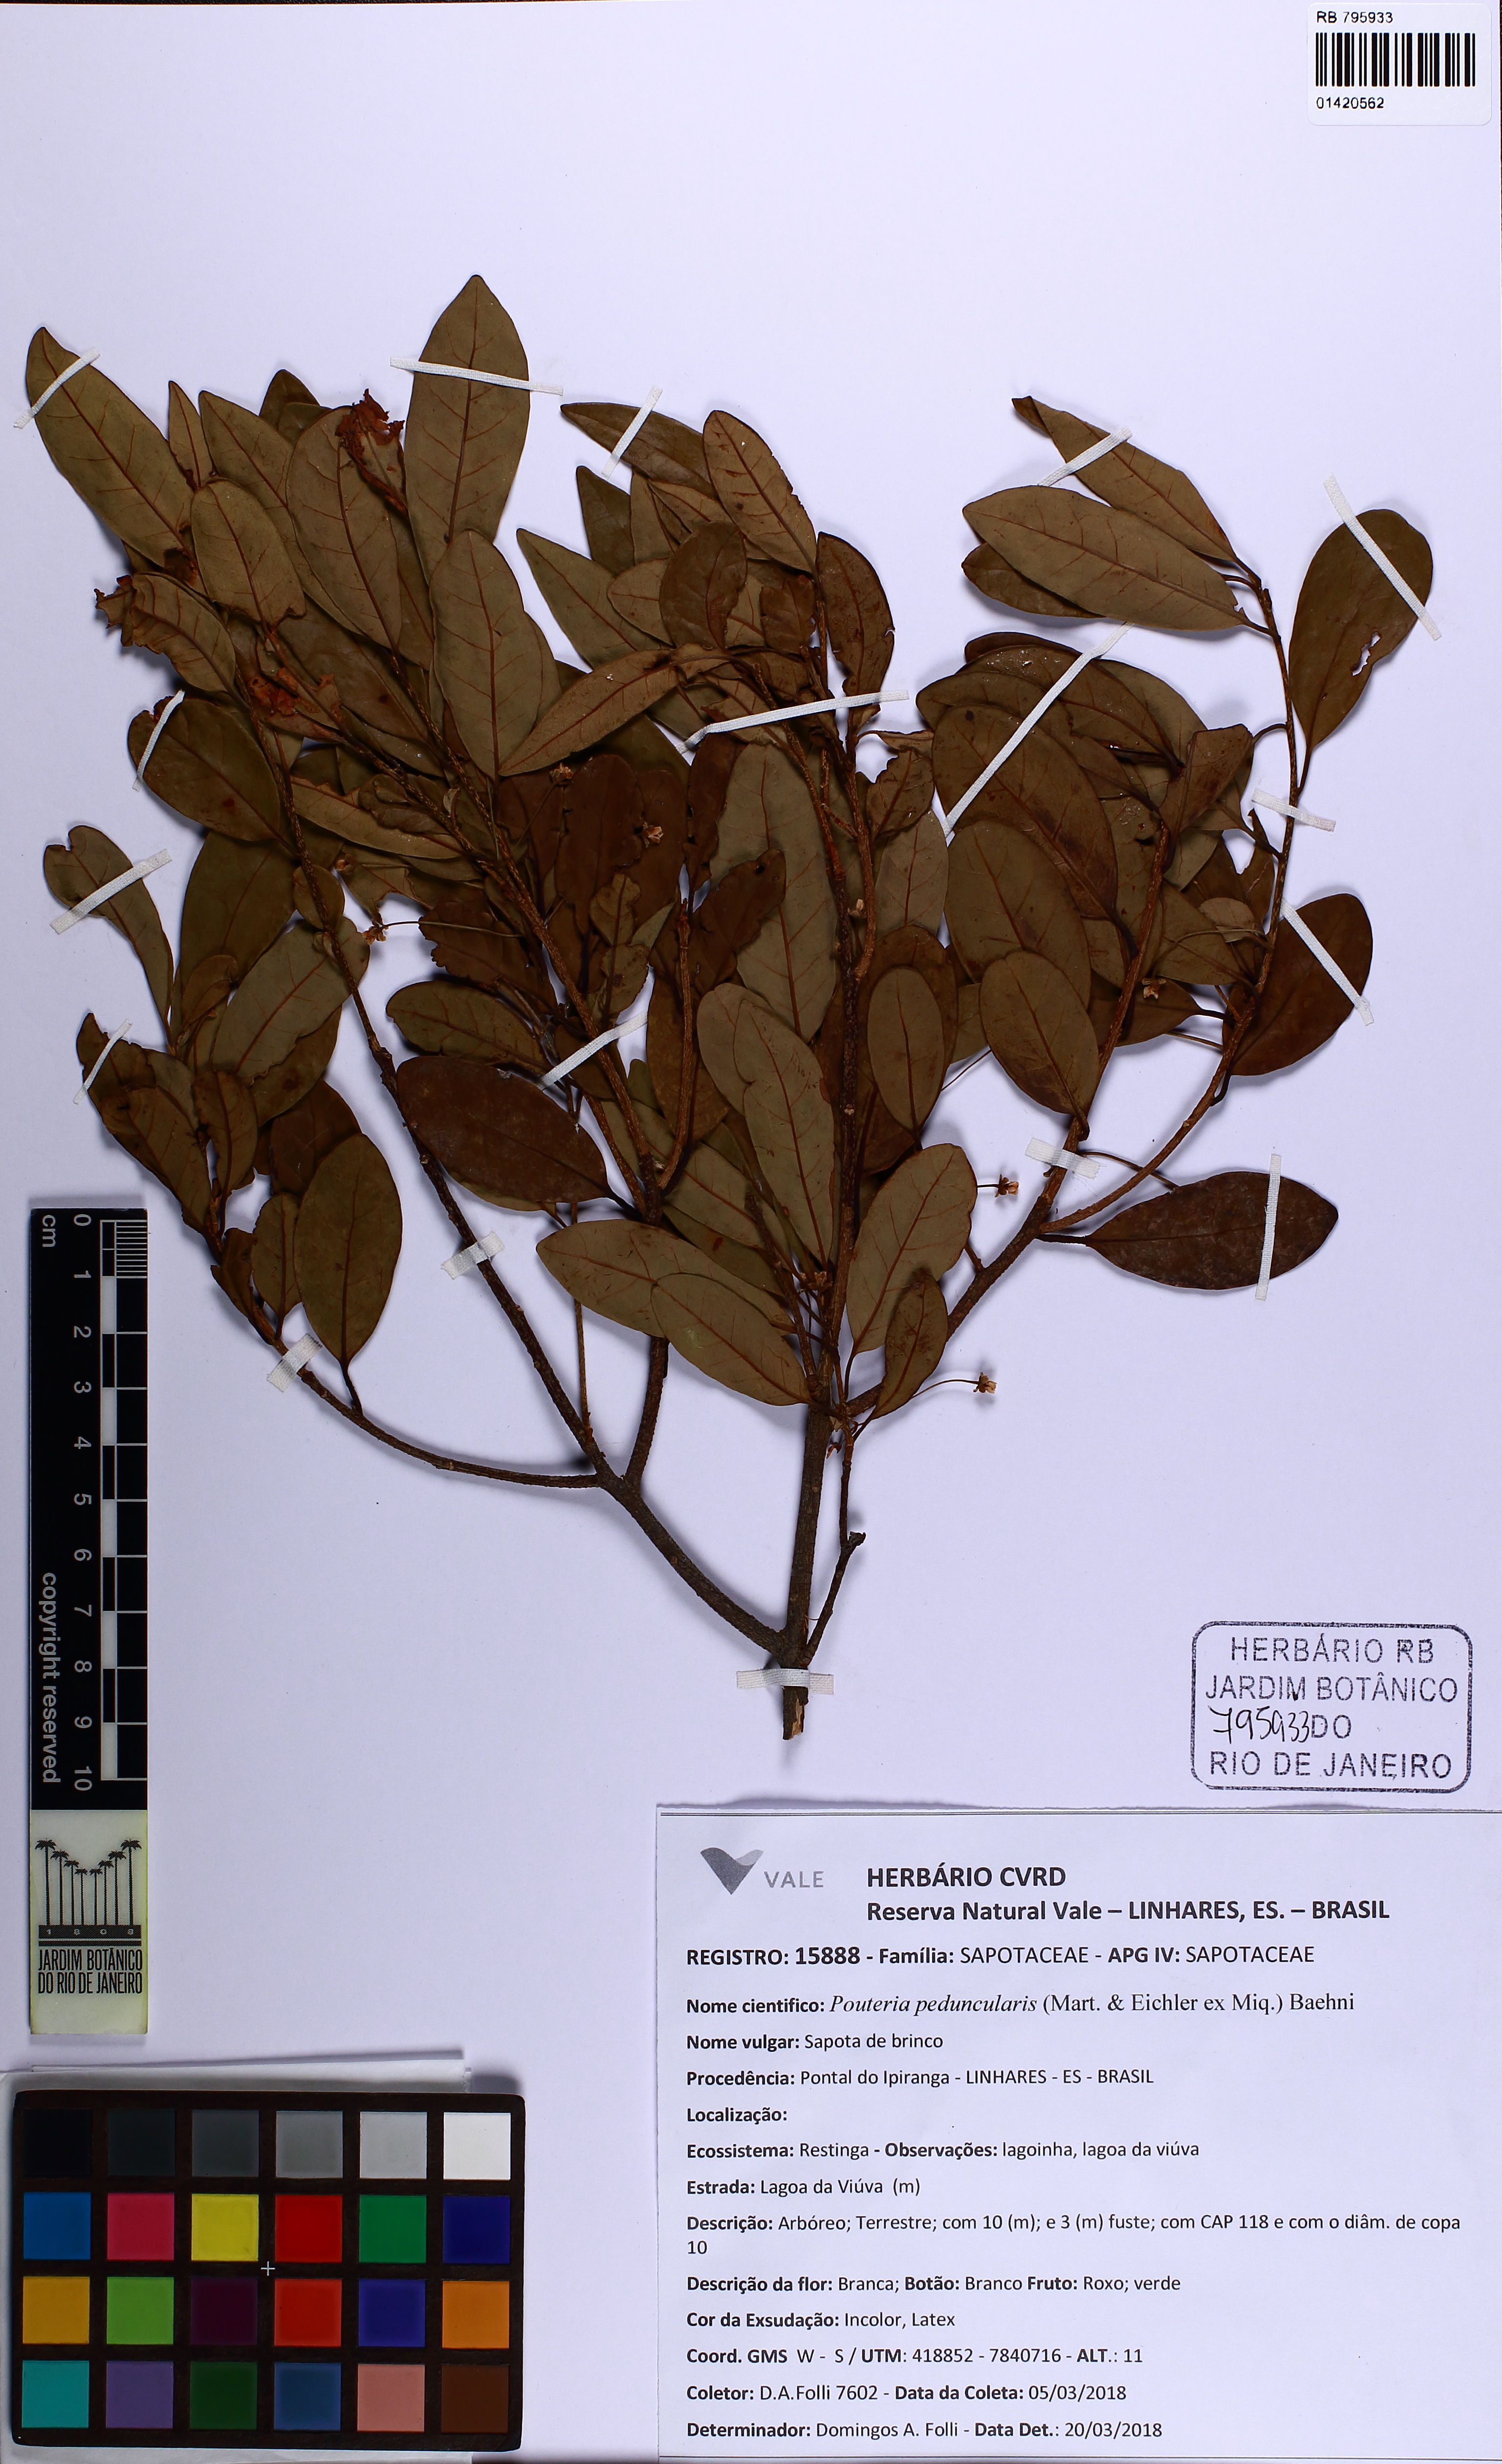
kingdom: Plantae
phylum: Tracheophyta
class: Magnoliopsida
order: Ericales
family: Sapotaceae
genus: Pouteria
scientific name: Pouteria gardneri
